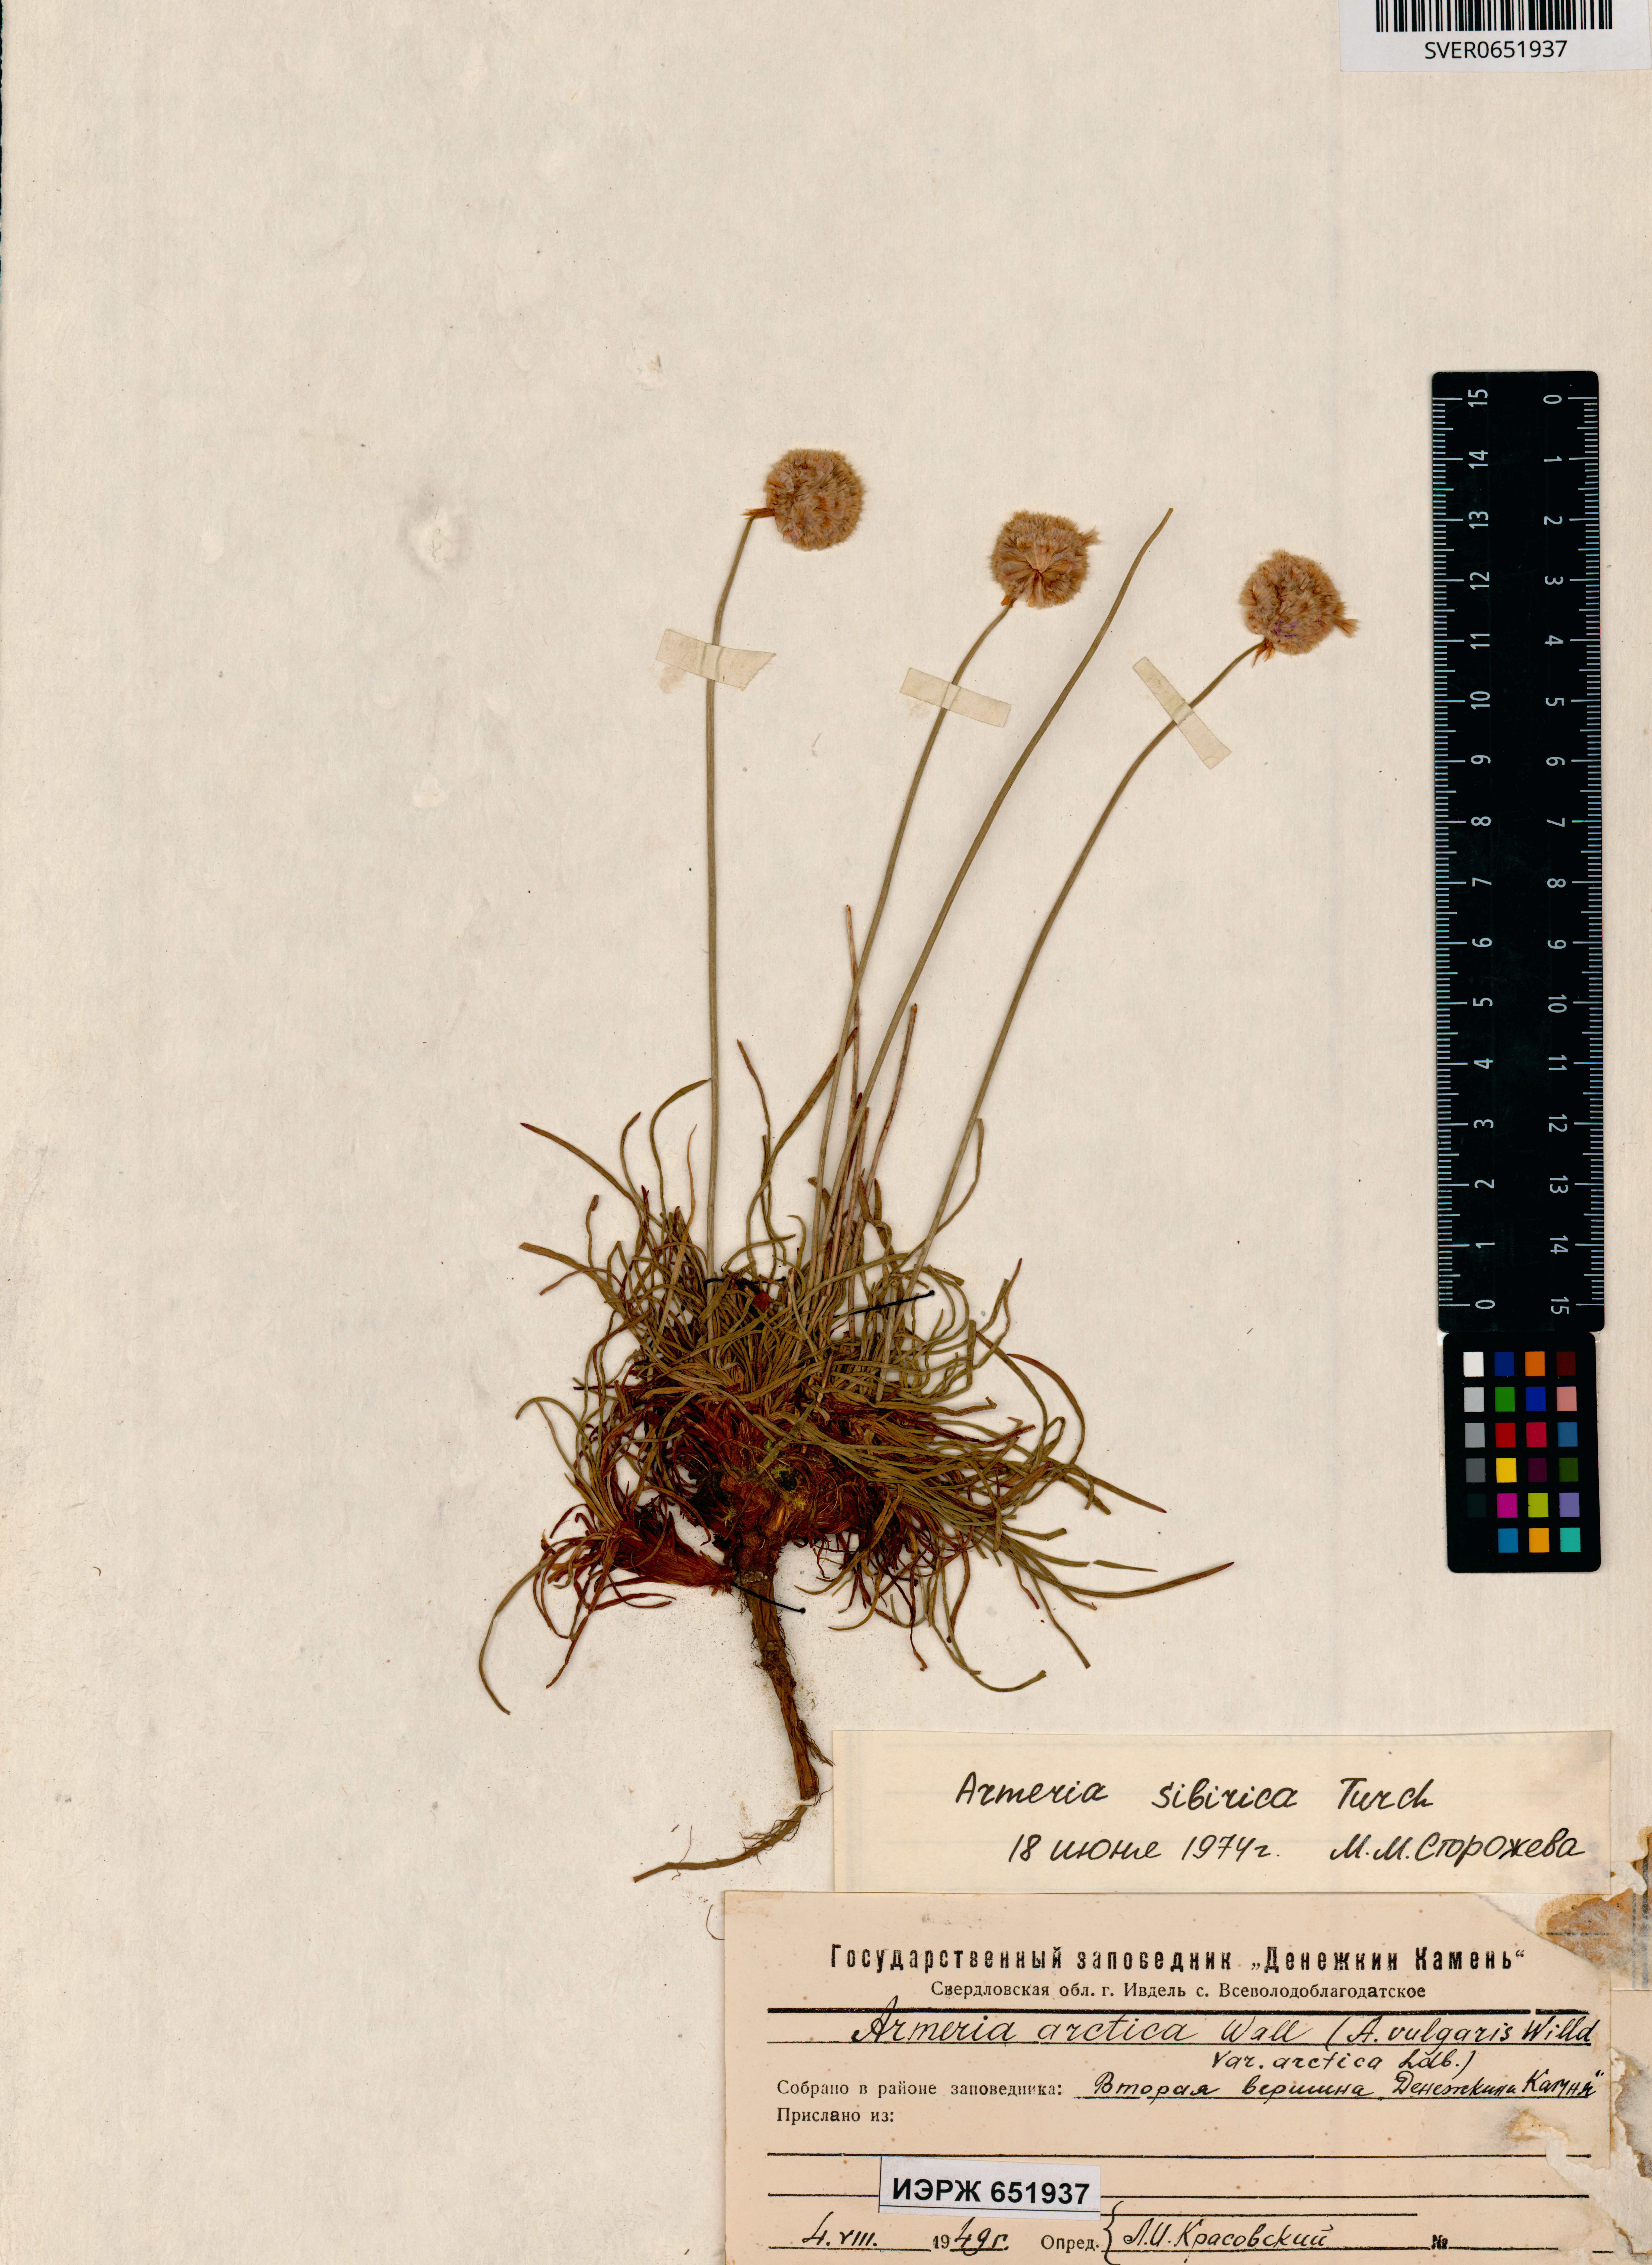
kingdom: Plantae
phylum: Tracheophyta
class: Magnoliopsida
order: Caryophyllales
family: Plumbaginaceae
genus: Armeria
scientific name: Armeria maritima
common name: Thrift
